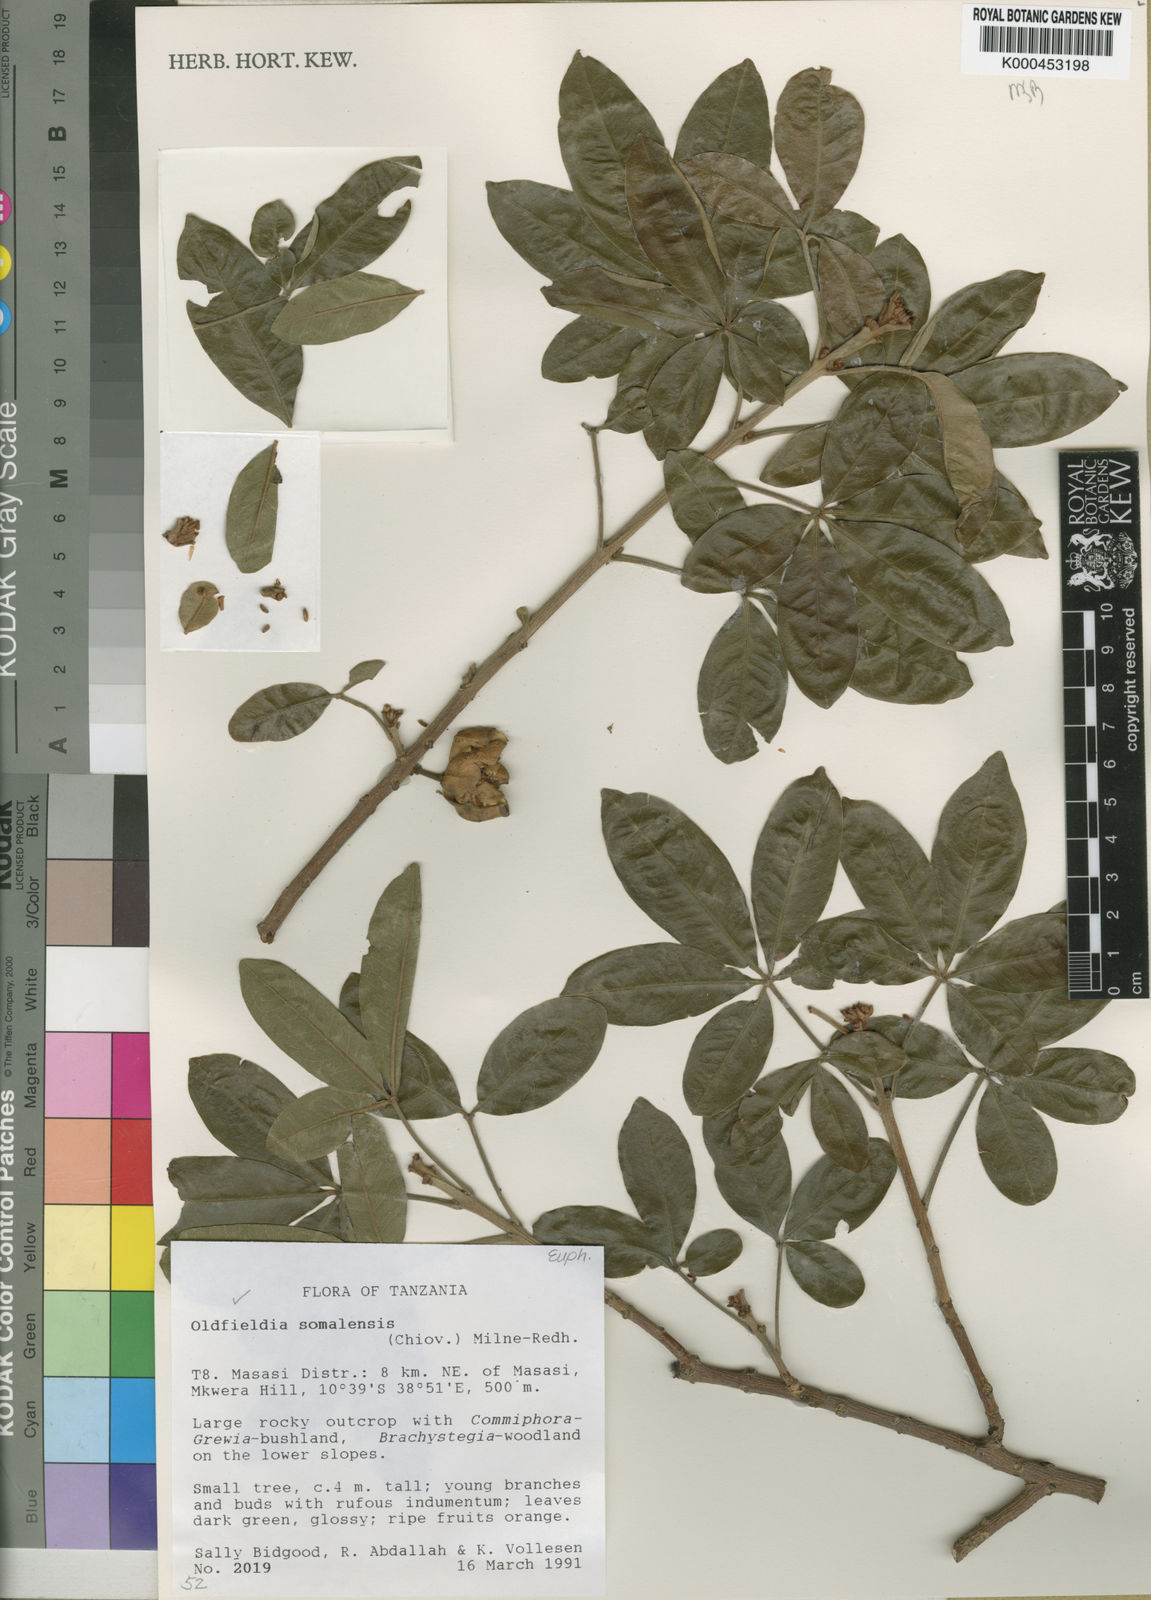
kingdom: Plantae
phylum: Tracheophyta
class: Magnoliopsida
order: Malpighiales
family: Picrodendraceae
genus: Oldfieldia
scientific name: Oldfieldia somalensis
